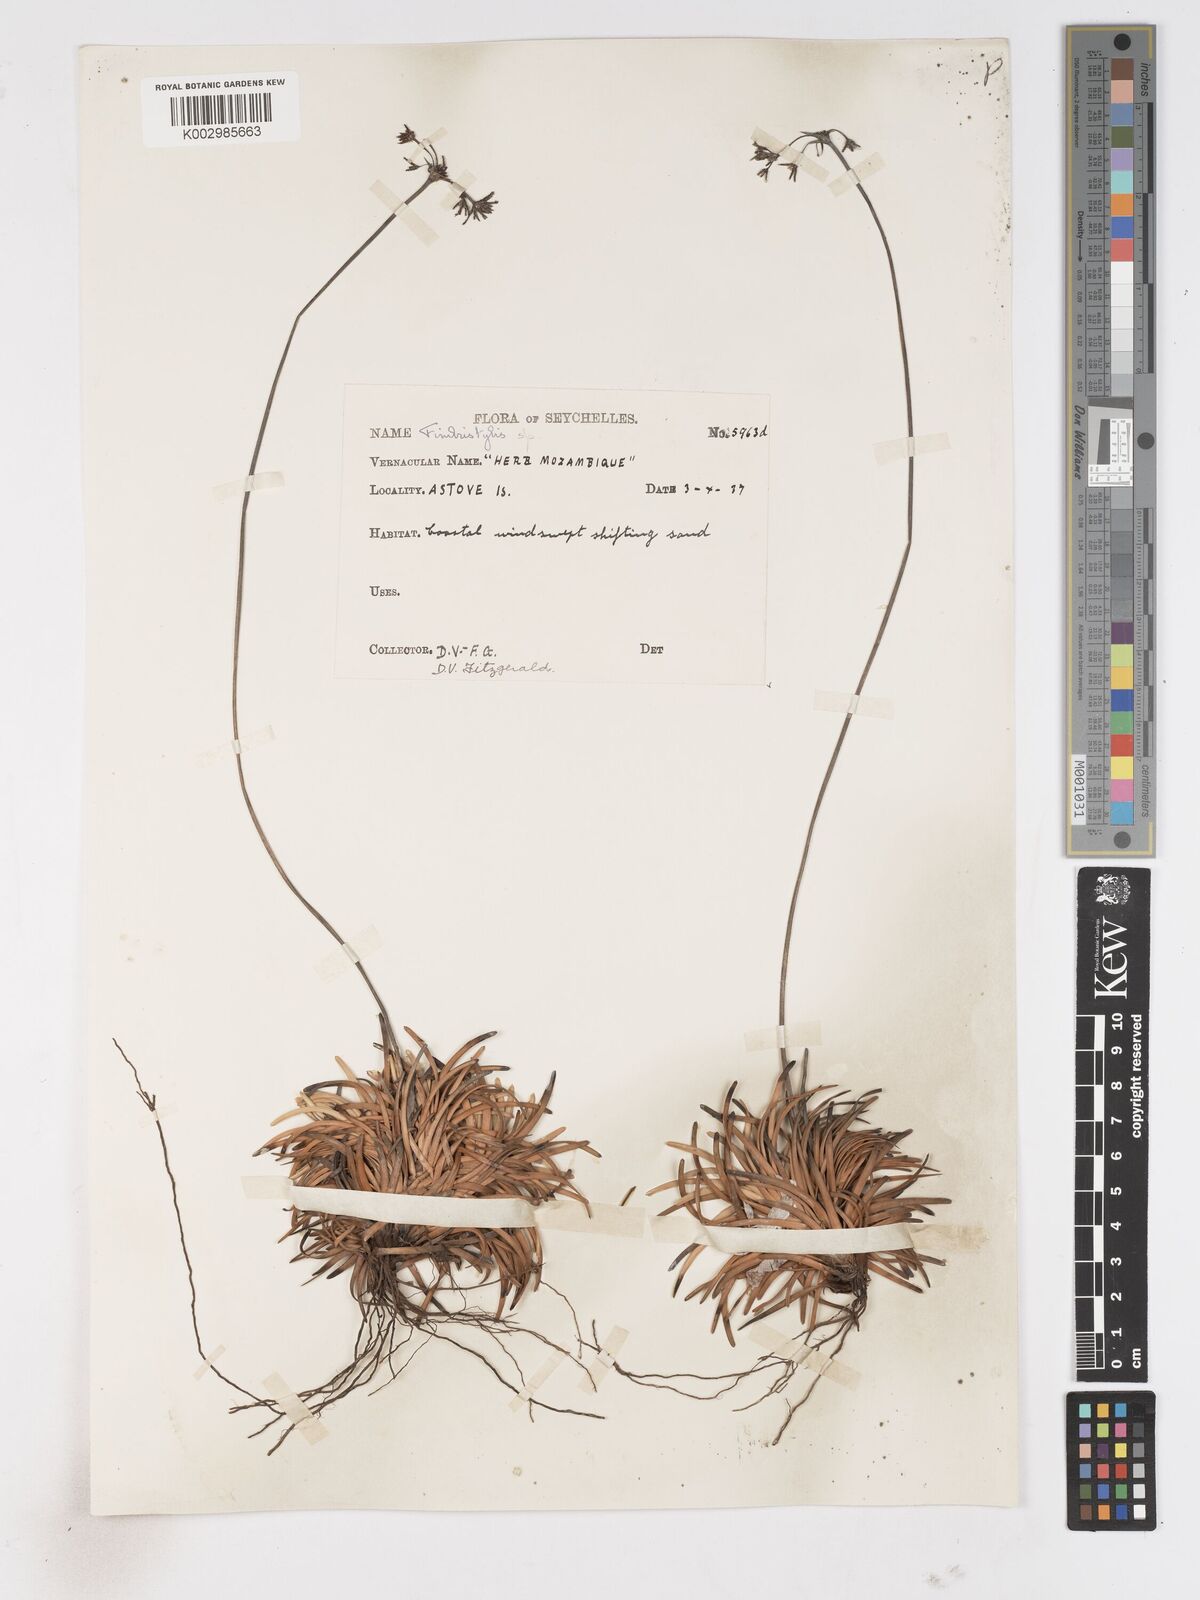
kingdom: Plantae
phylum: Tracheophyta
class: Liliopsida
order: Poales
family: Cyperaceae
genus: Fimbristylis
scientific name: Fimbristylis cymosa
